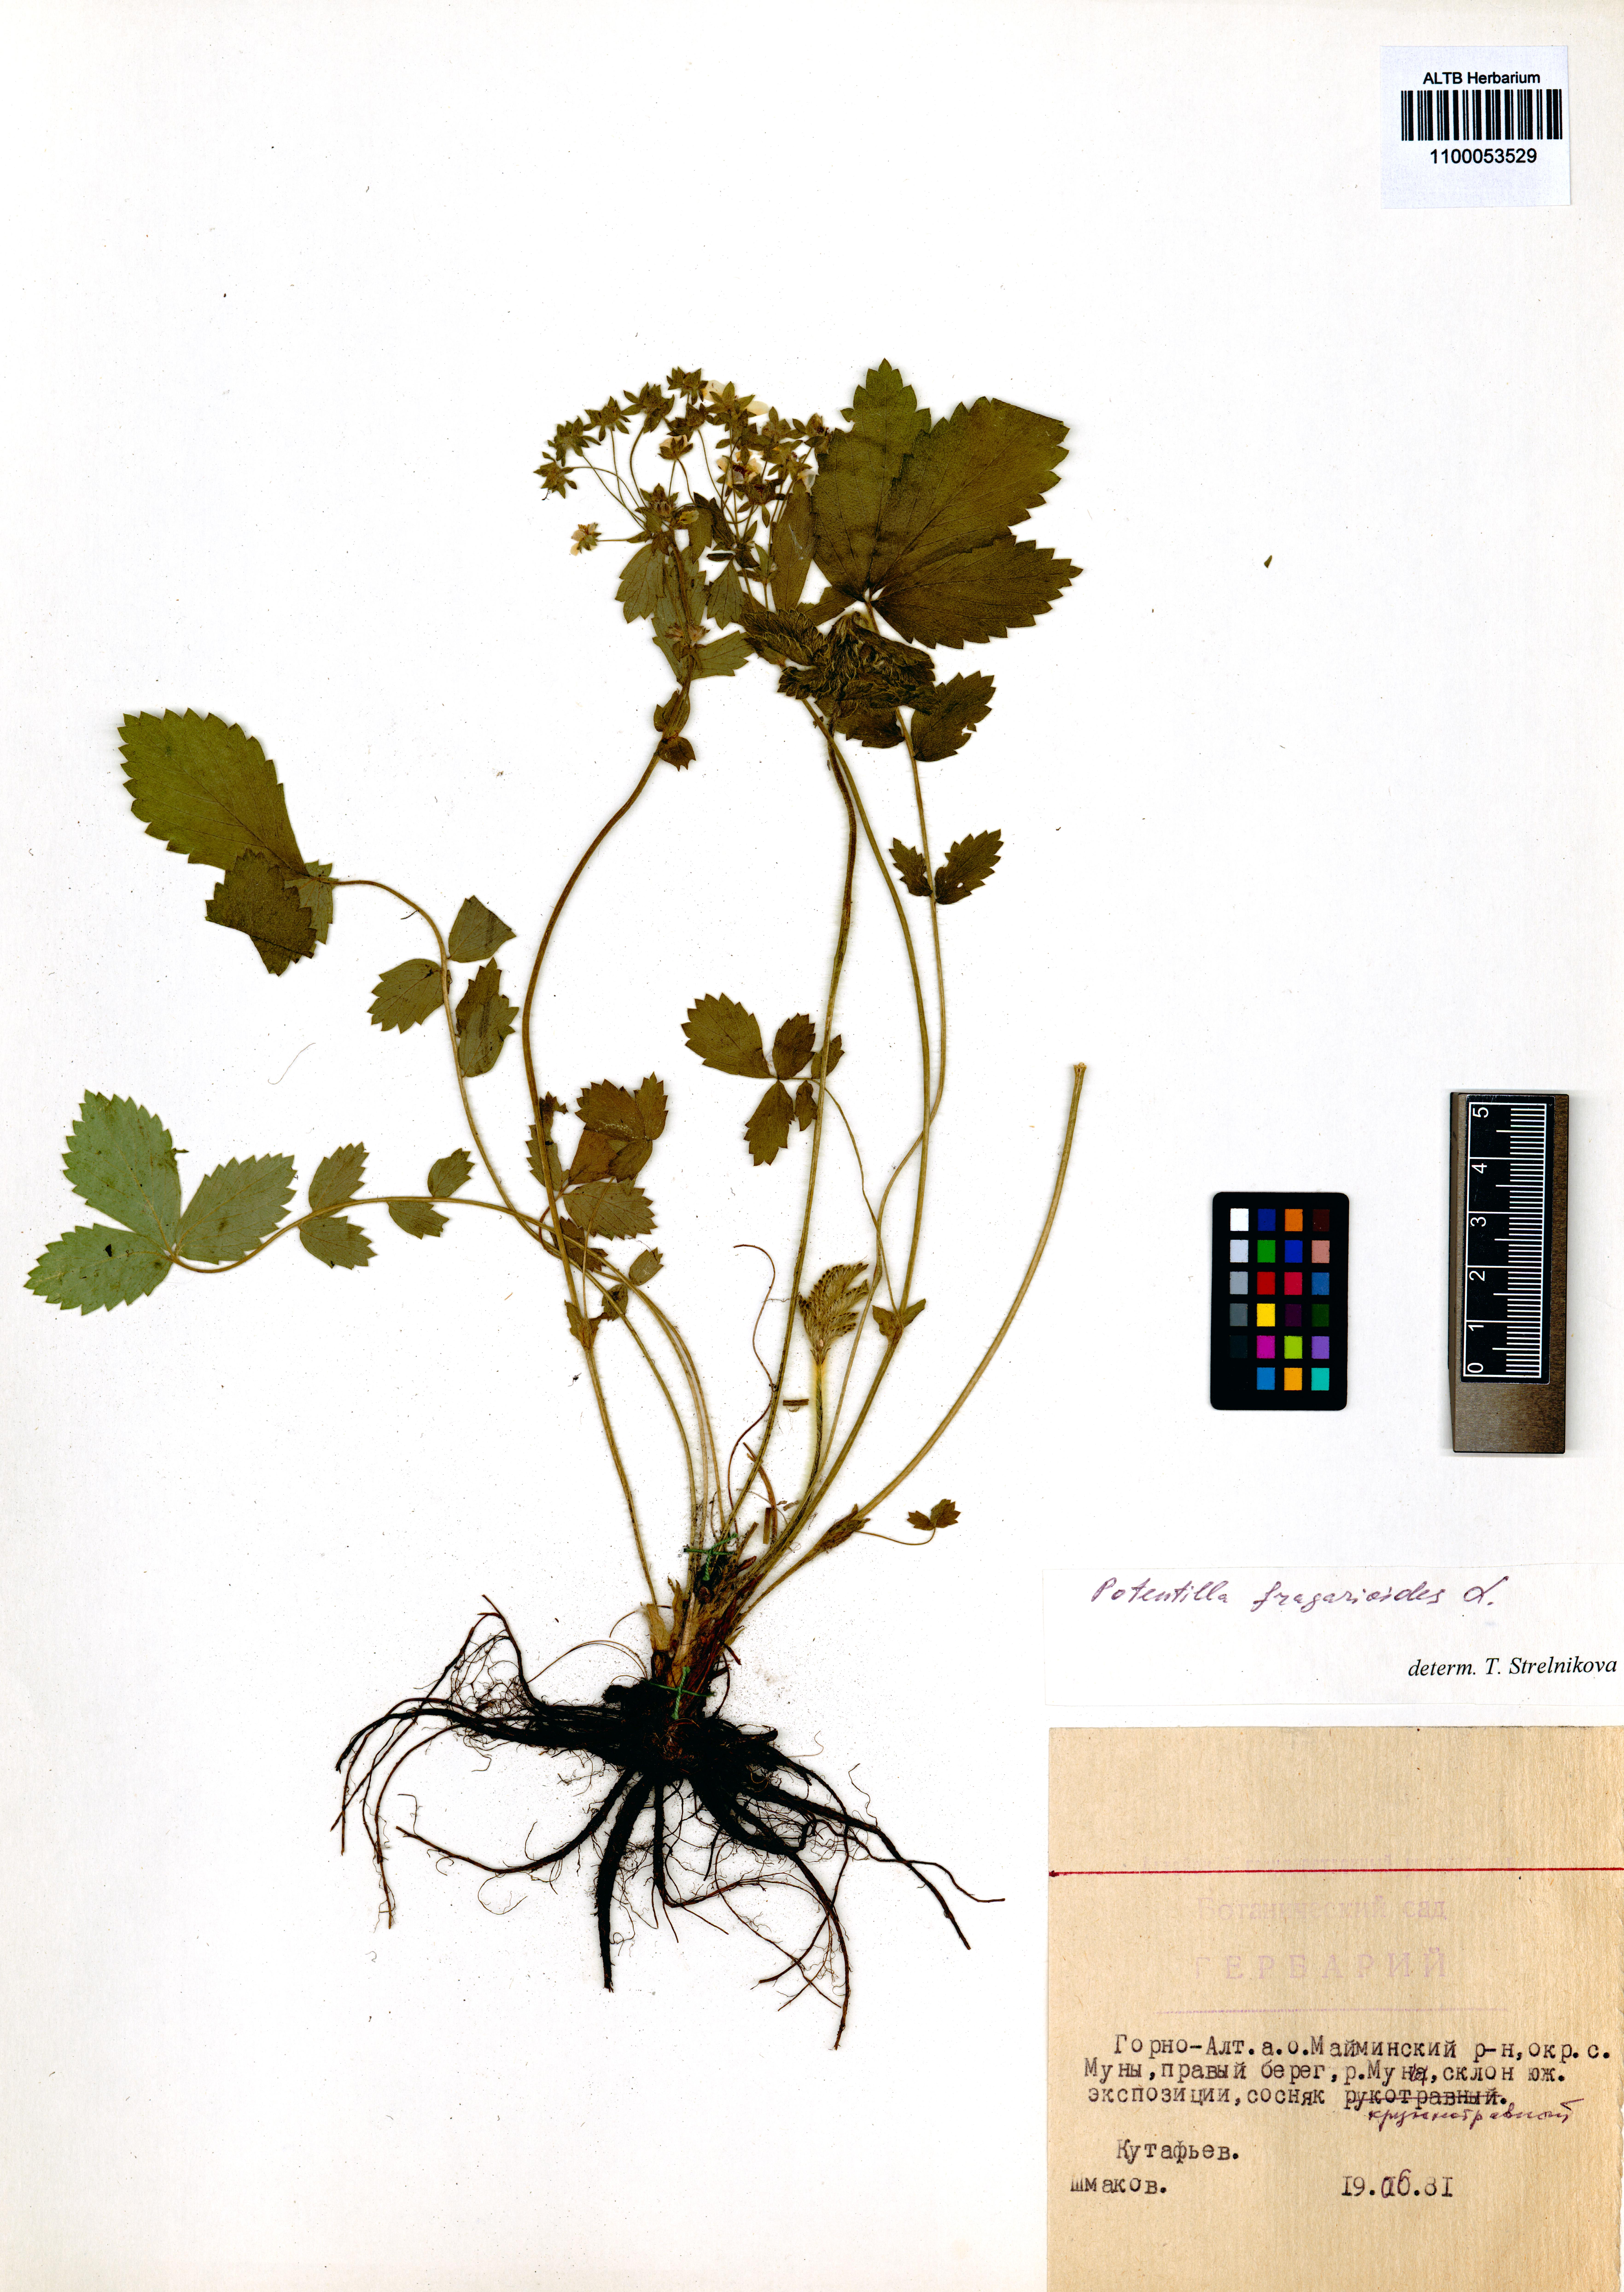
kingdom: Plantae
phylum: Tracheophyta
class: Magnoliopsida
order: Rosales
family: Rosaceae
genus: Potentilla
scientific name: Potentilla fragarioides
